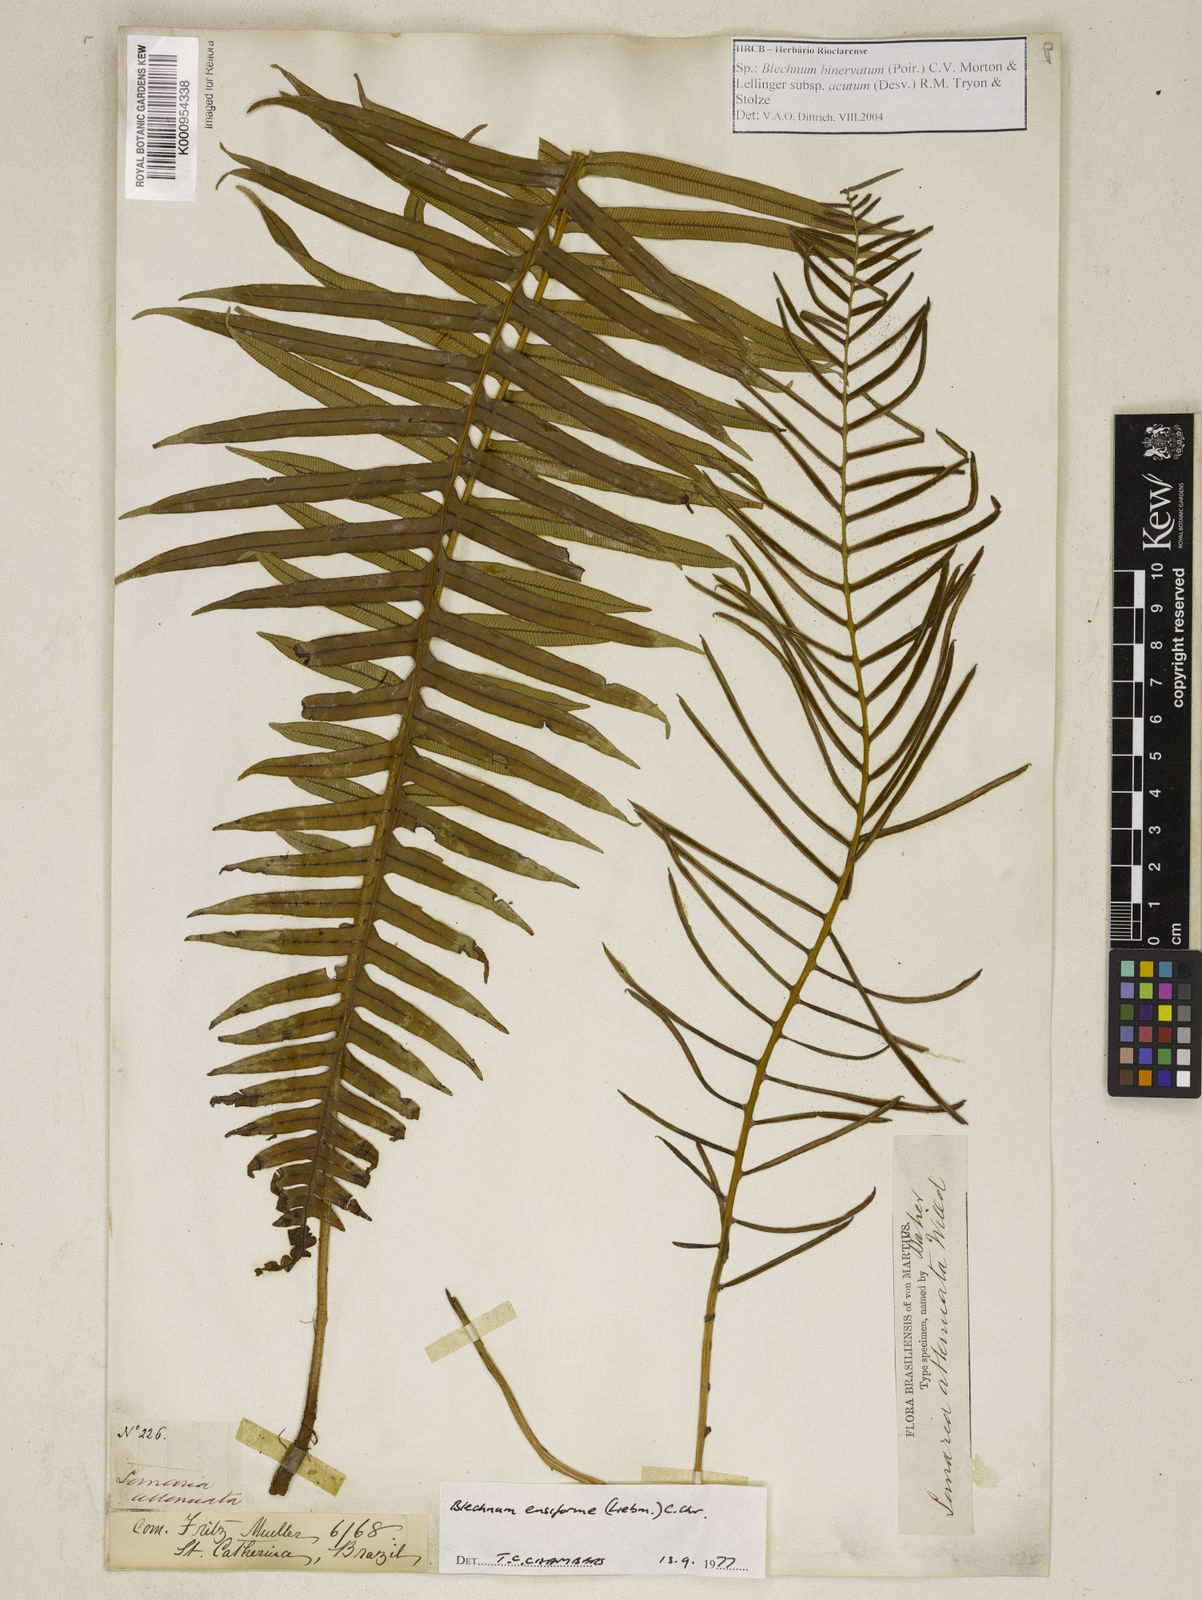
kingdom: Plantae
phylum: Tracheophyta
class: Polypodiopsida
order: Polypodiales
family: Blechnaceae
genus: Lomaridium
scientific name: Lomaridium ensiforme
